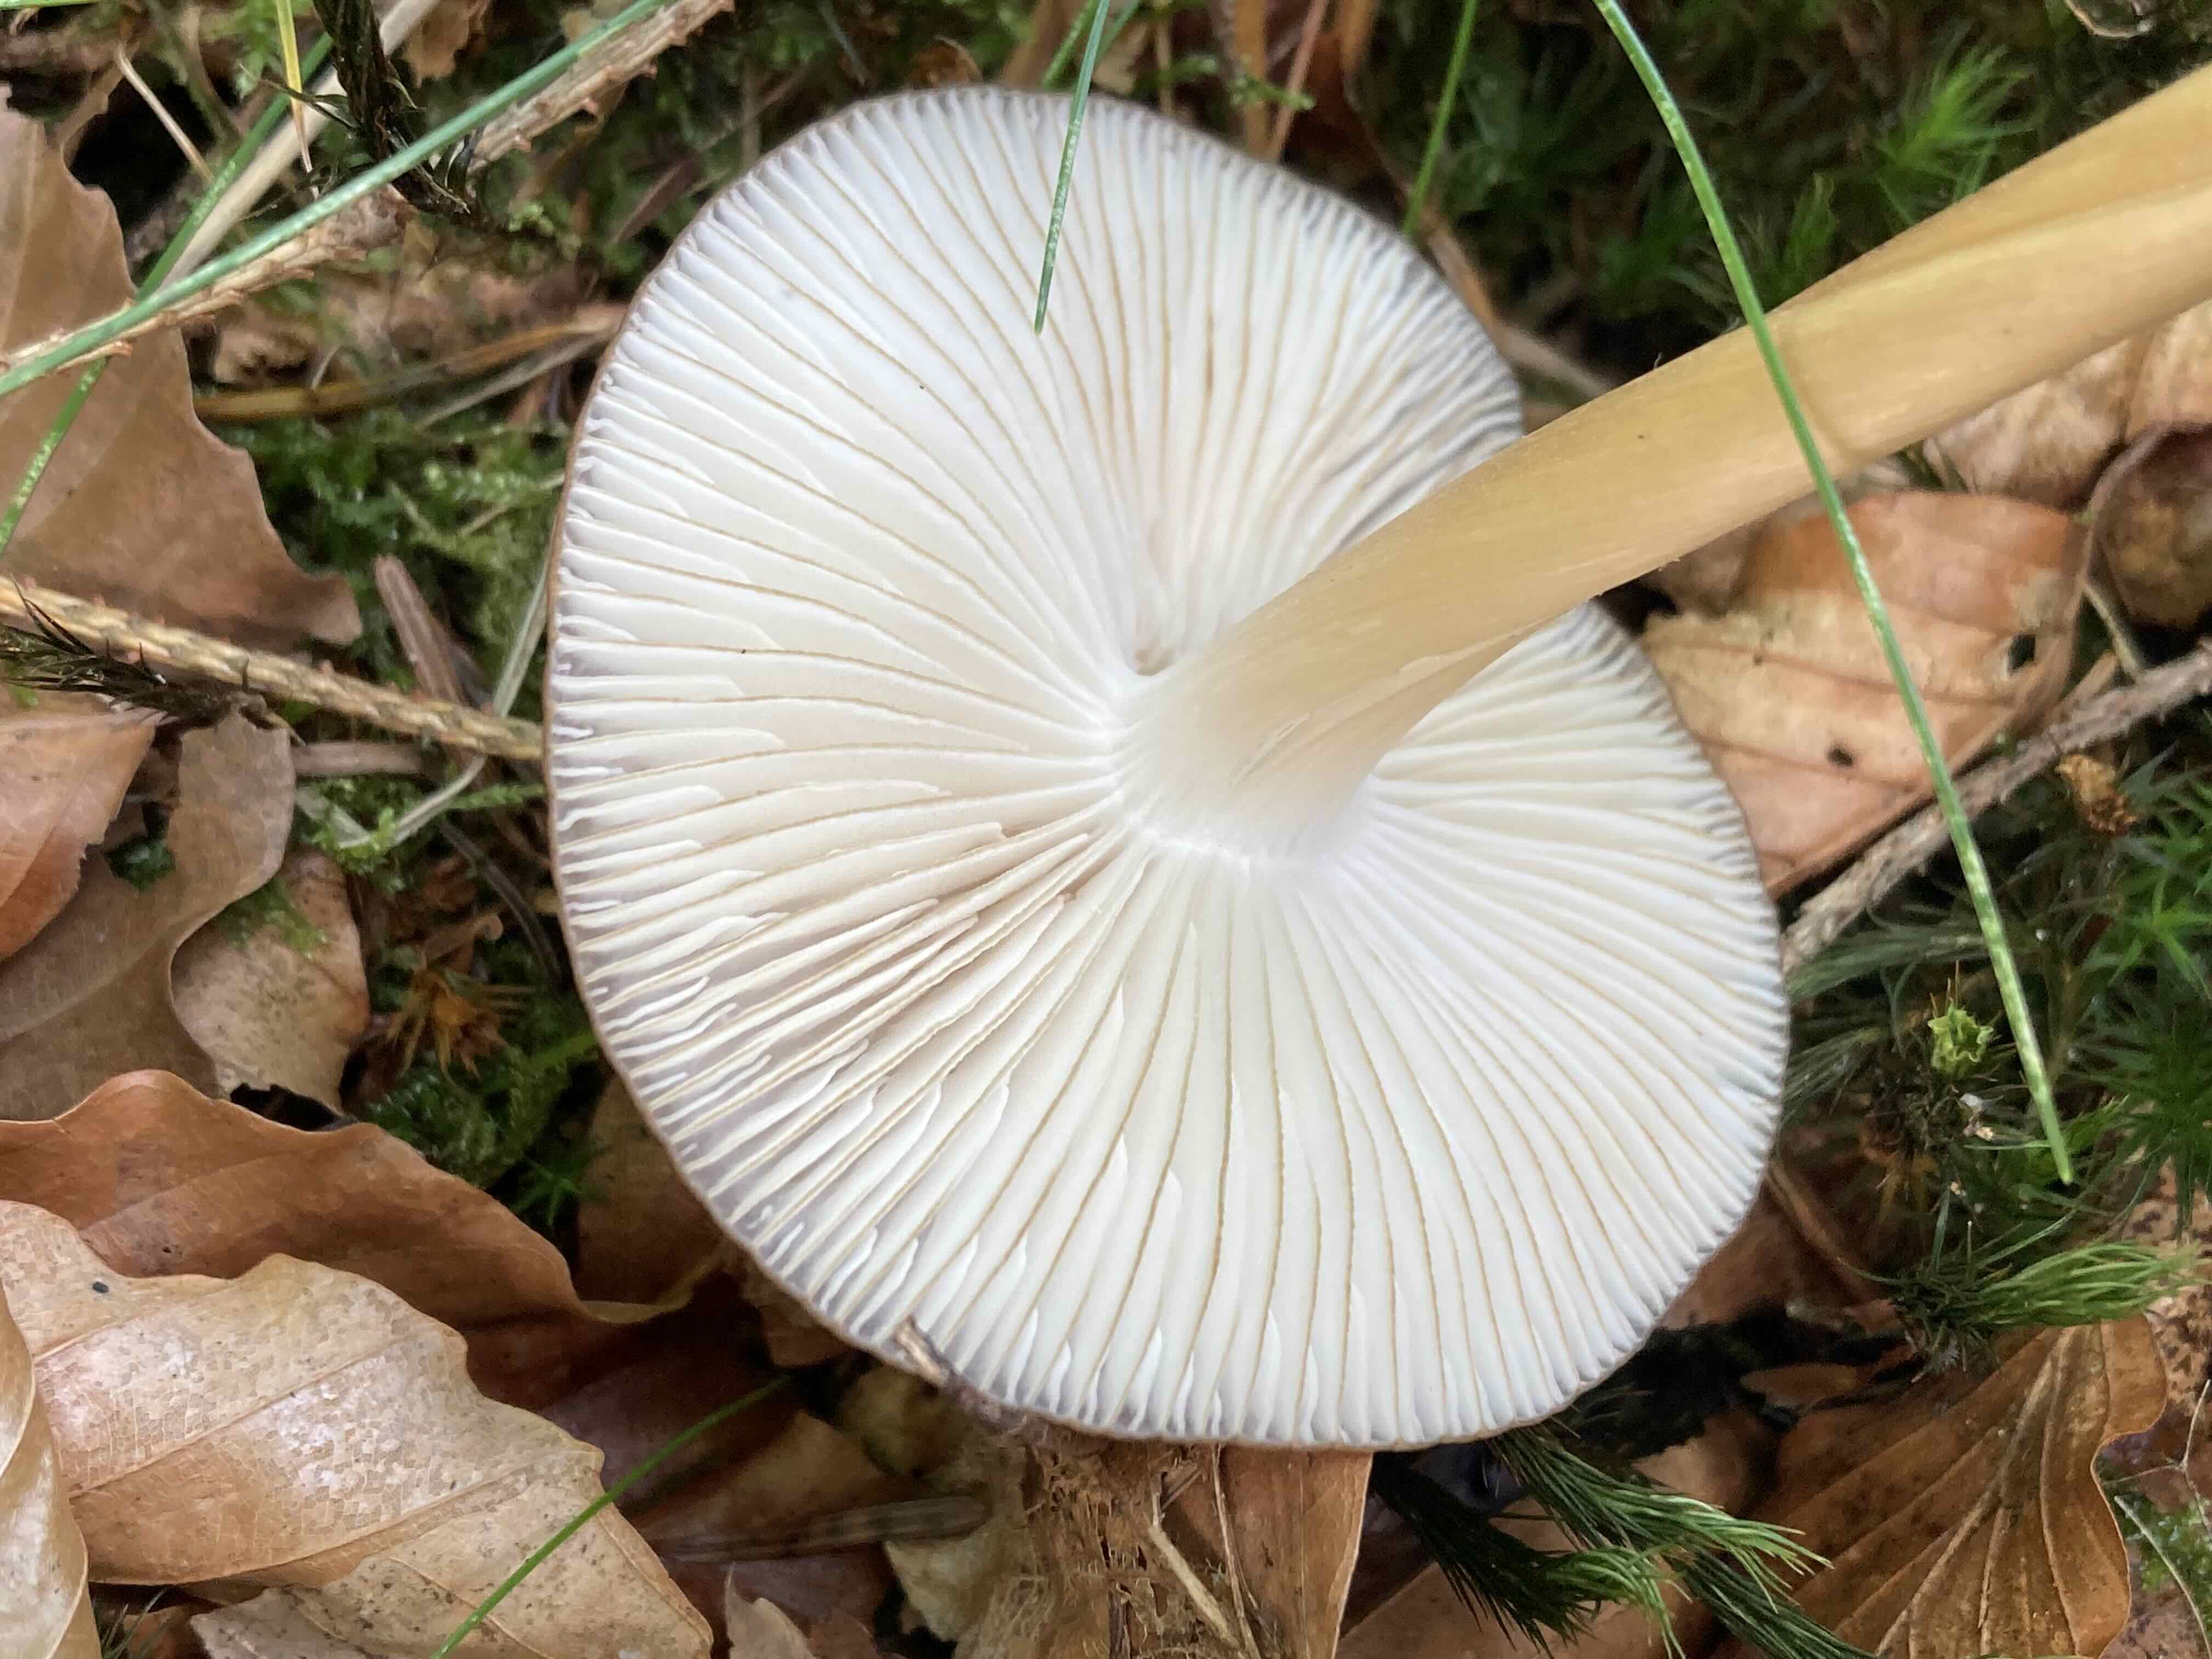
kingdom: Fungi
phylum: Basidiomycota
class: Agaricomycetes
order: Agaricales
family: Physalacriaceae
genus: Hymenopellis
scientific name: Hymenopellis radicata
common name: almindelig pælerodshat
